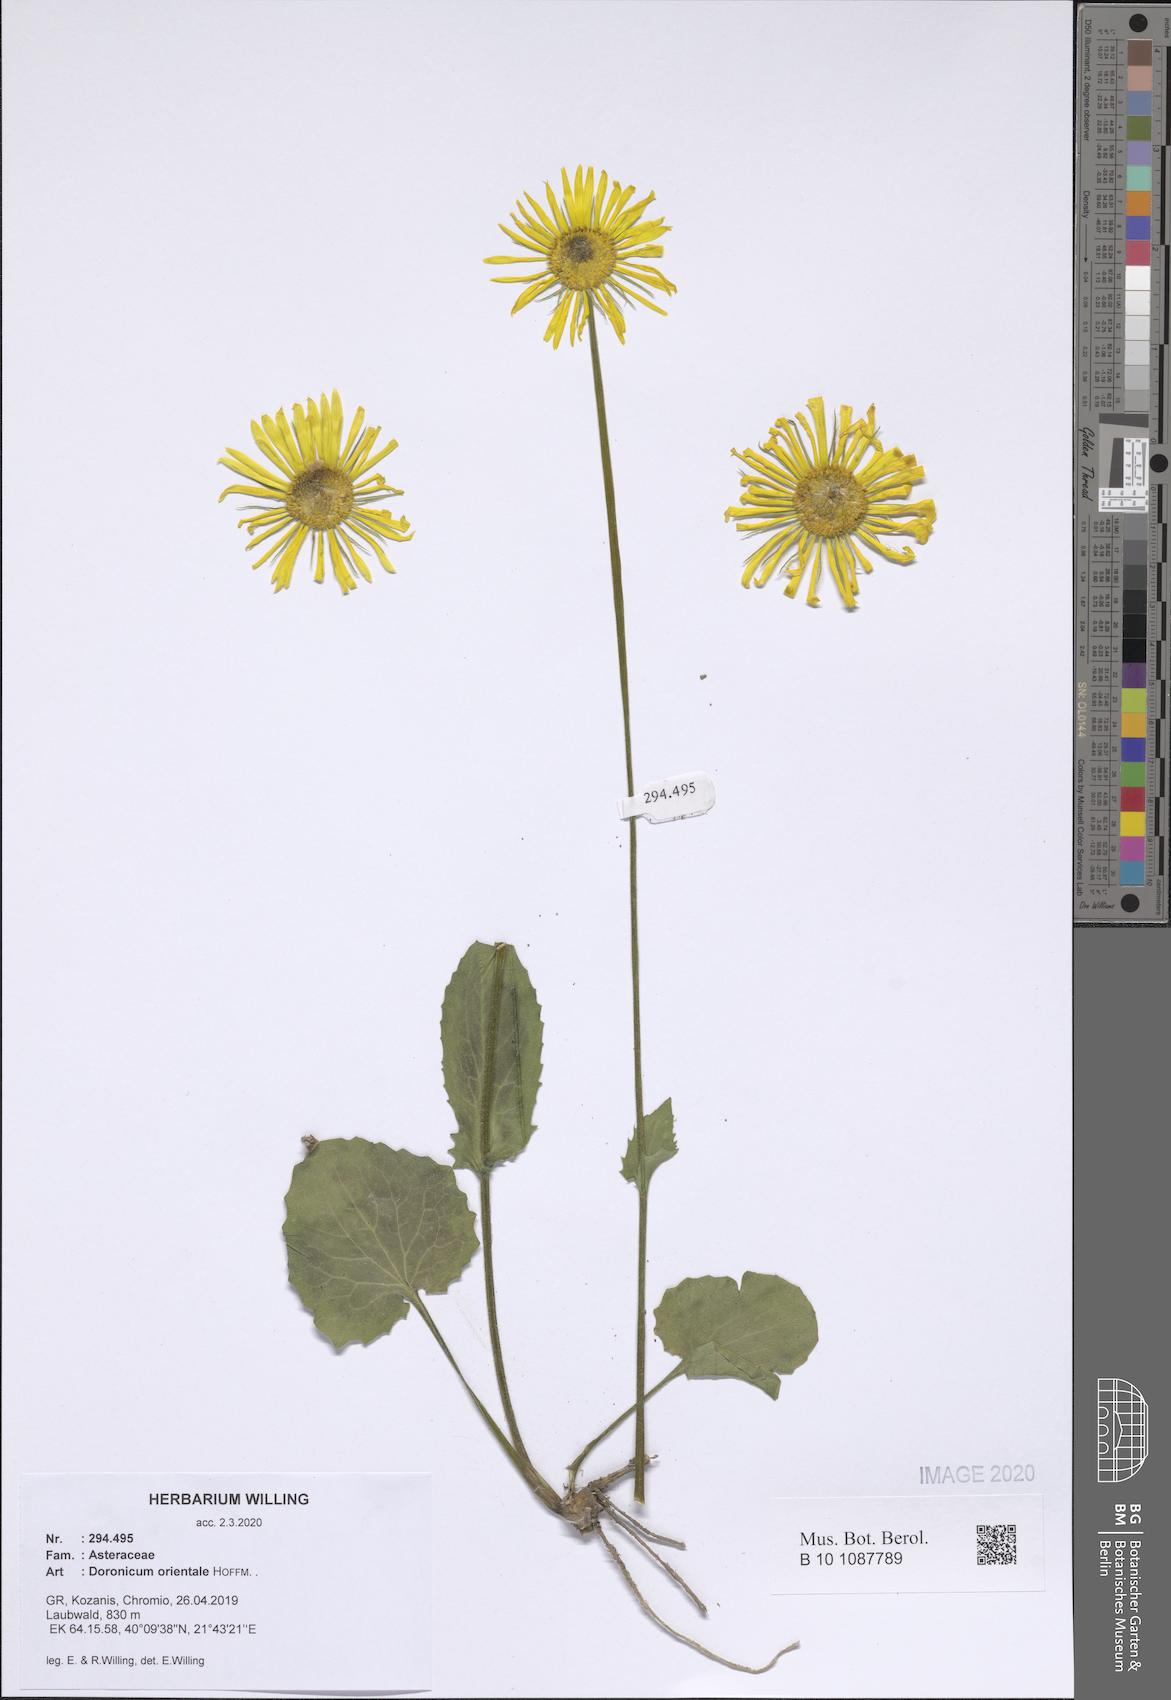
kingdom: Plantae
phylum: Tracheophyta
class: Magnoliopsida
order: Asterales
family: Asteraceae
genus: Doronicum
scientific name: Doronicum orientale
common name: Oriental leopard's-bane
